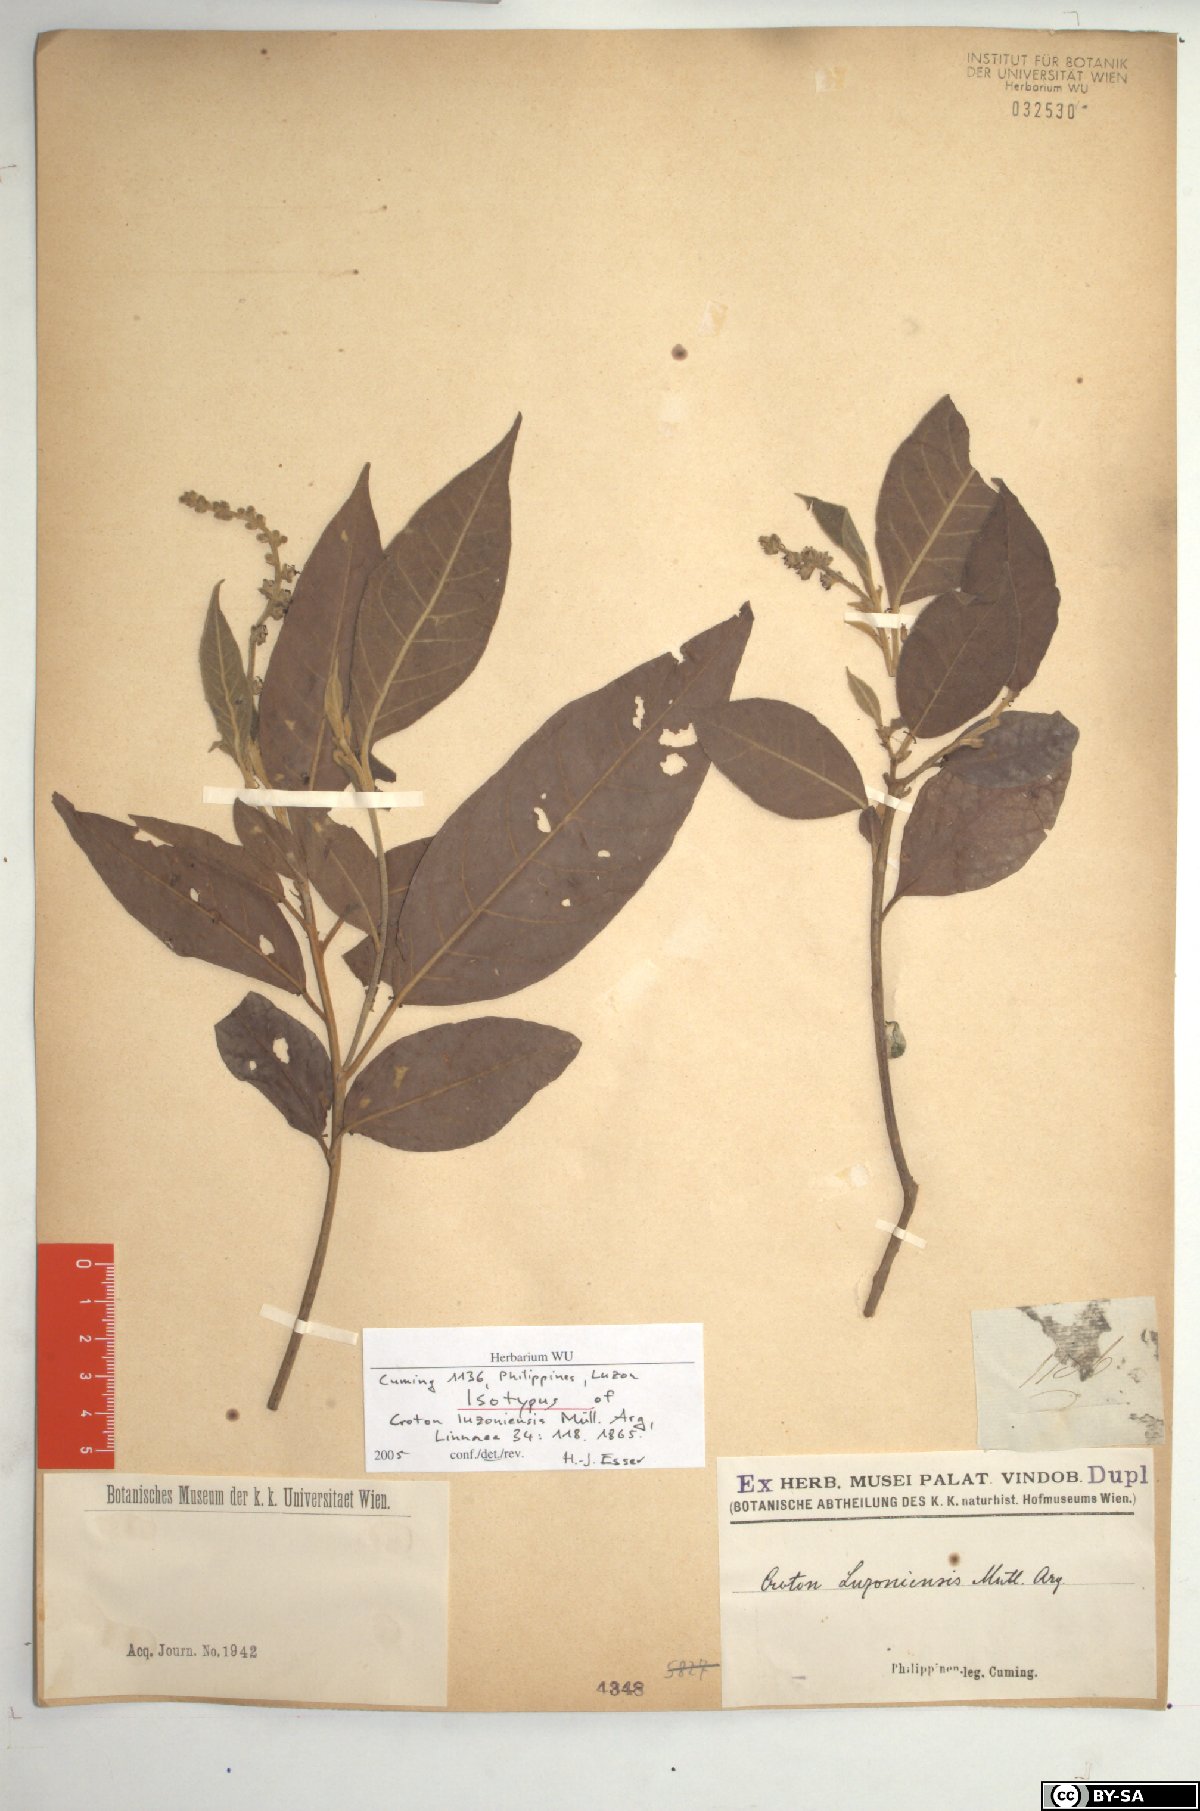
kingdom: Plantae
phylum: Tracheophyta
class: Magnoliopsida
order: Malpighiales
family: Euphorbiaceae
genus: Croton
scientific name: Croton luzoniensis
